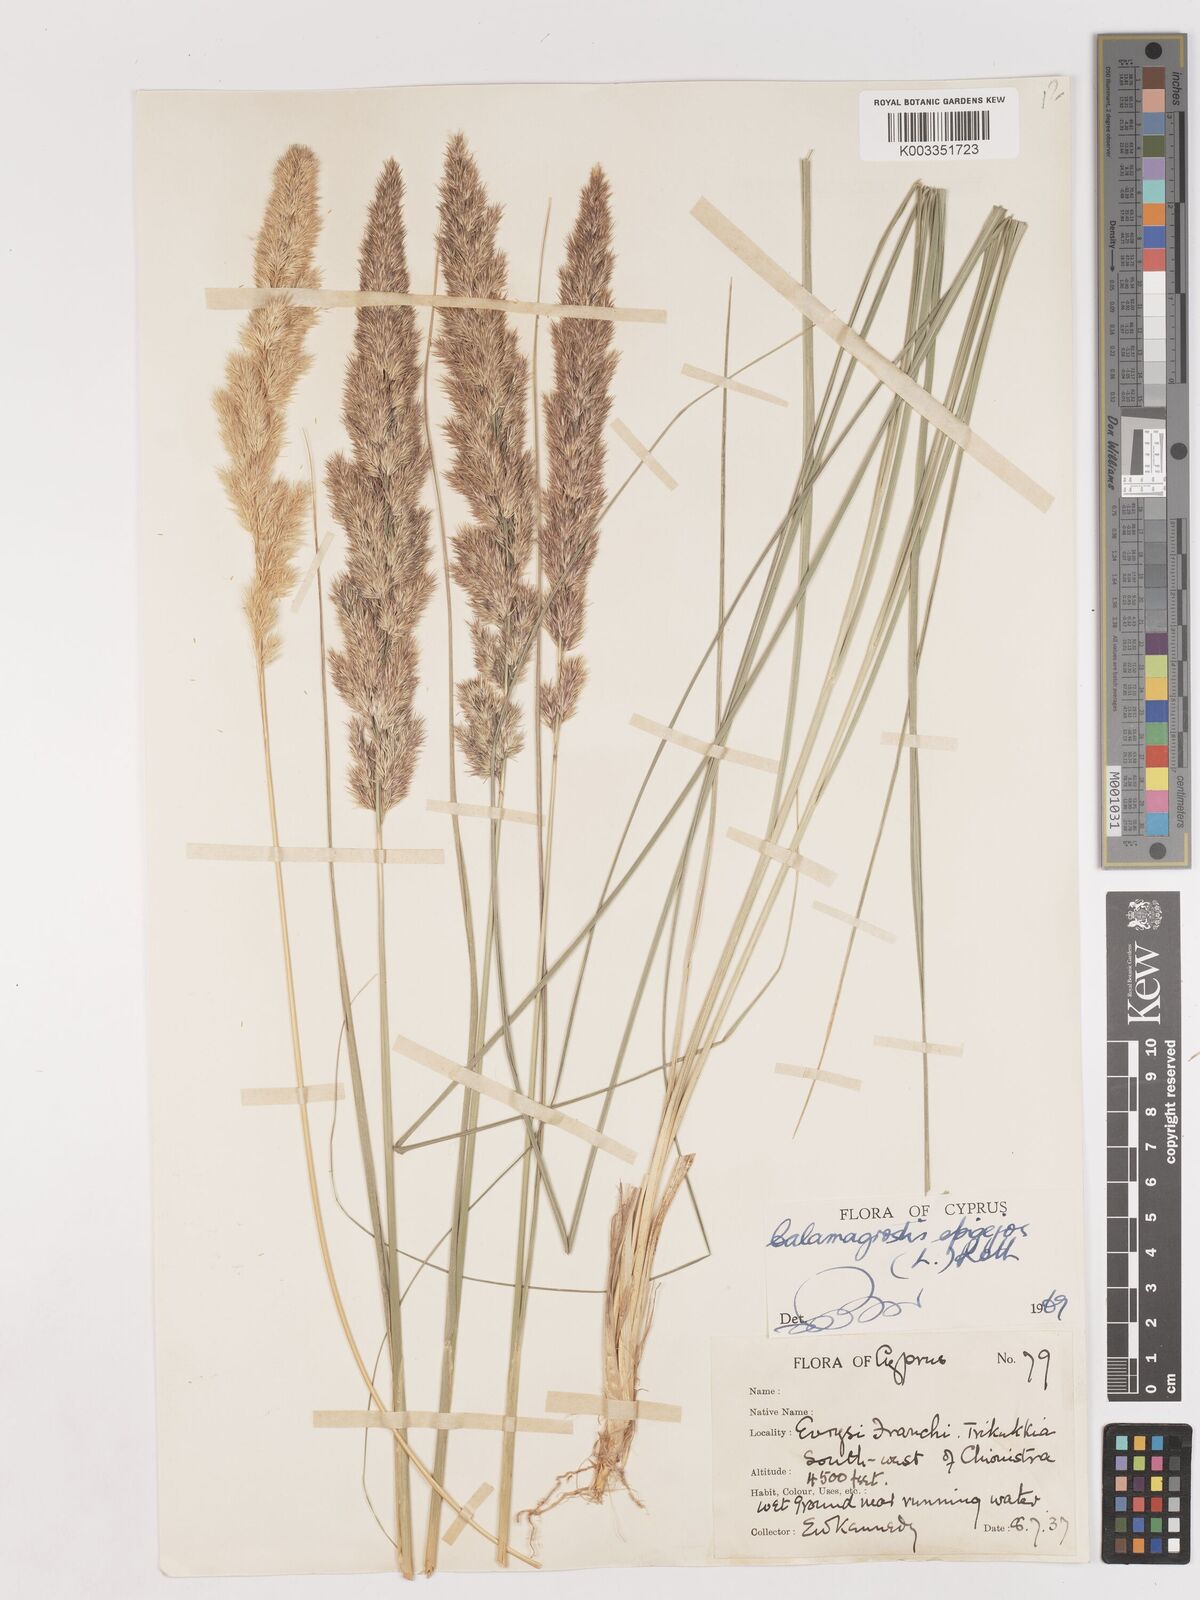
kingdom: Plantae
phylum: Tracheophyta
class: Liliopsida
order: Poales
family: Poaceae
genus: Calamagrostis
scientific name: Calamagrostis epigejos
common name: Wood small-reed
